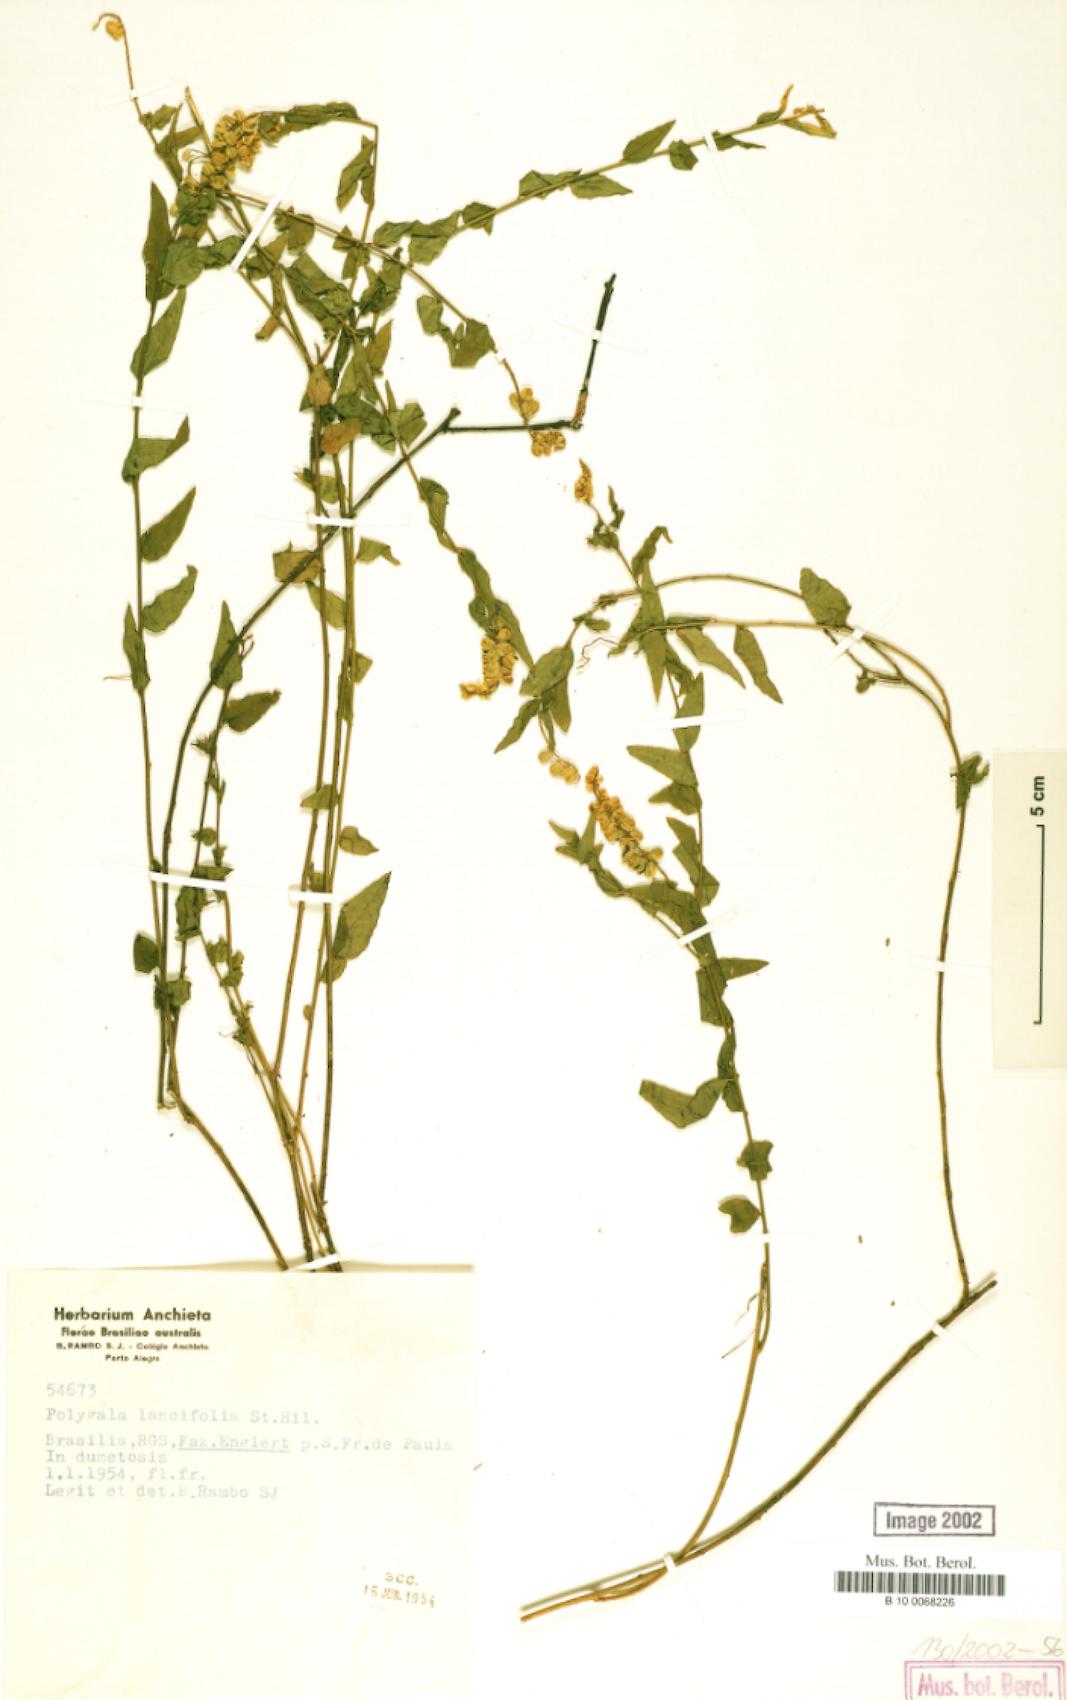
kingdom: Plantae
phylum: Tracheophyta
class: Magnoliopsida
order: Fabales
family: Polygalaceae
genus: Polygala
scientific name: Polygala lancifolia
